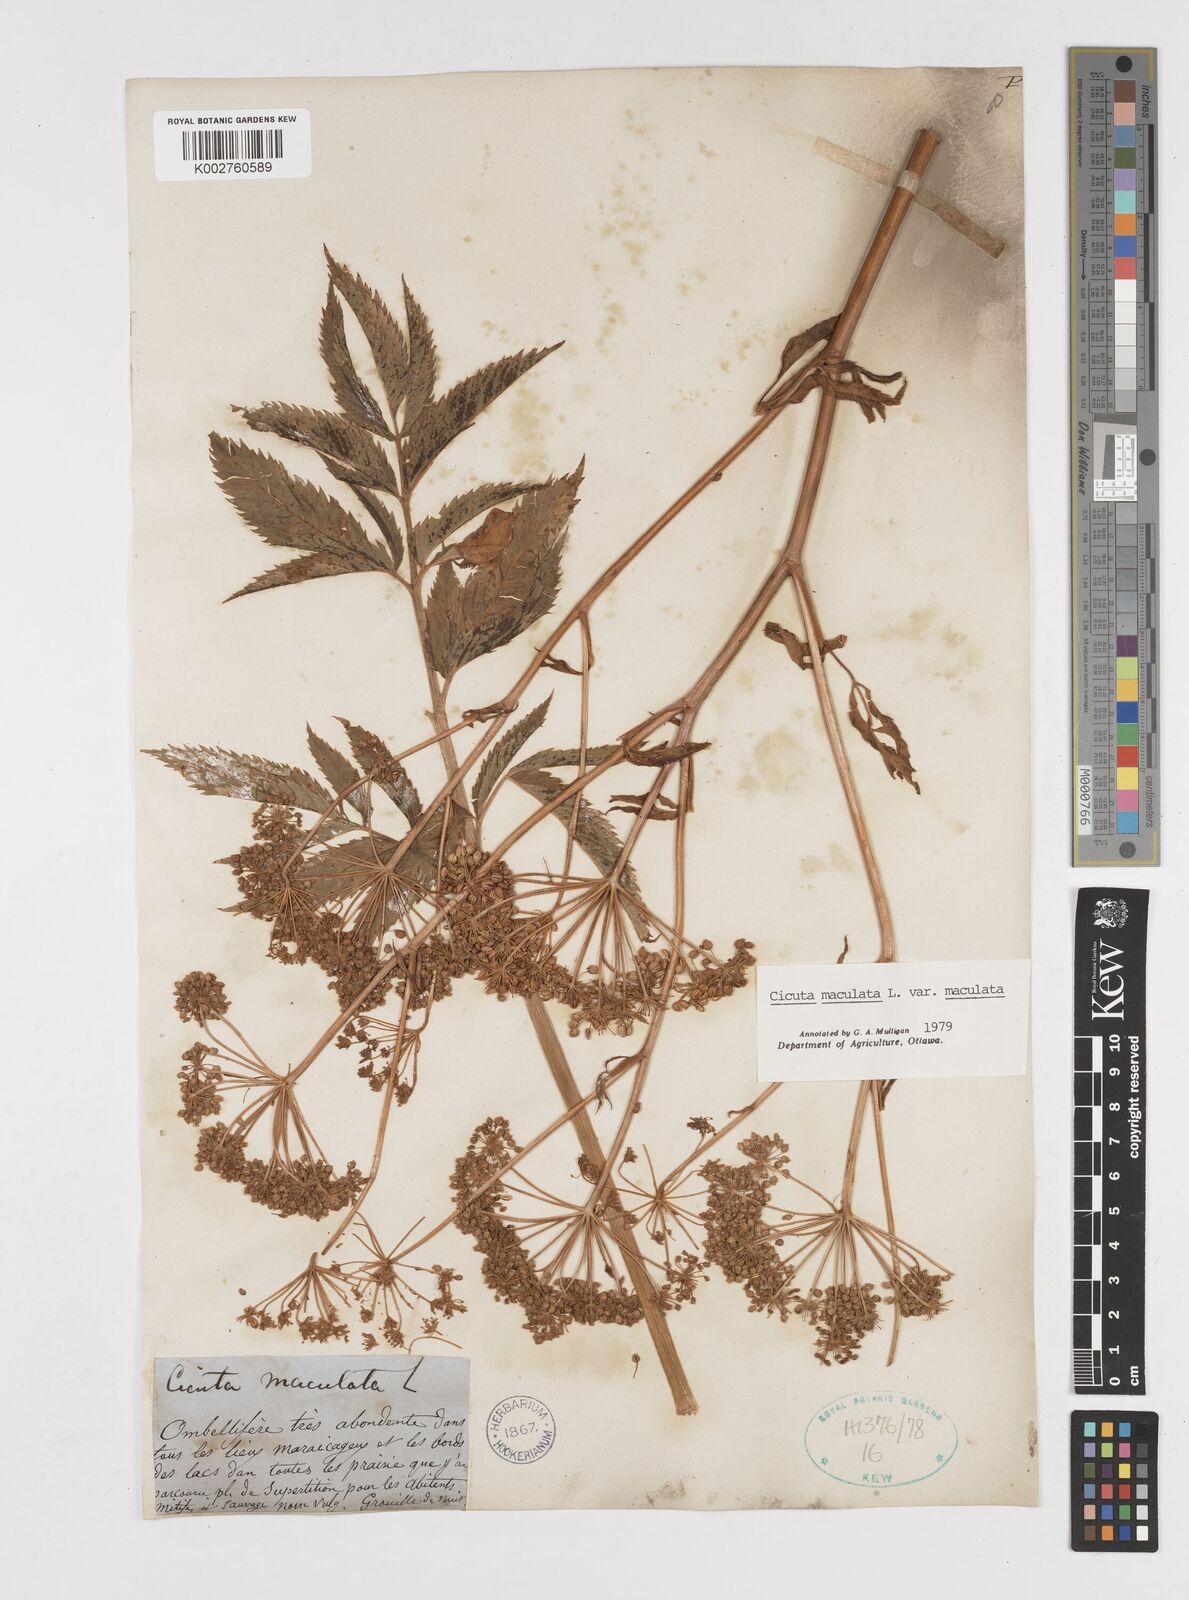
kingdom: Plantae
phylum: Tracheophyta
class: Magnoliopsida
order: Apiales
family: Apiaceae
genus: Cicuta
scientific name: Cicuta maculata
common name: Spotted cowbane
